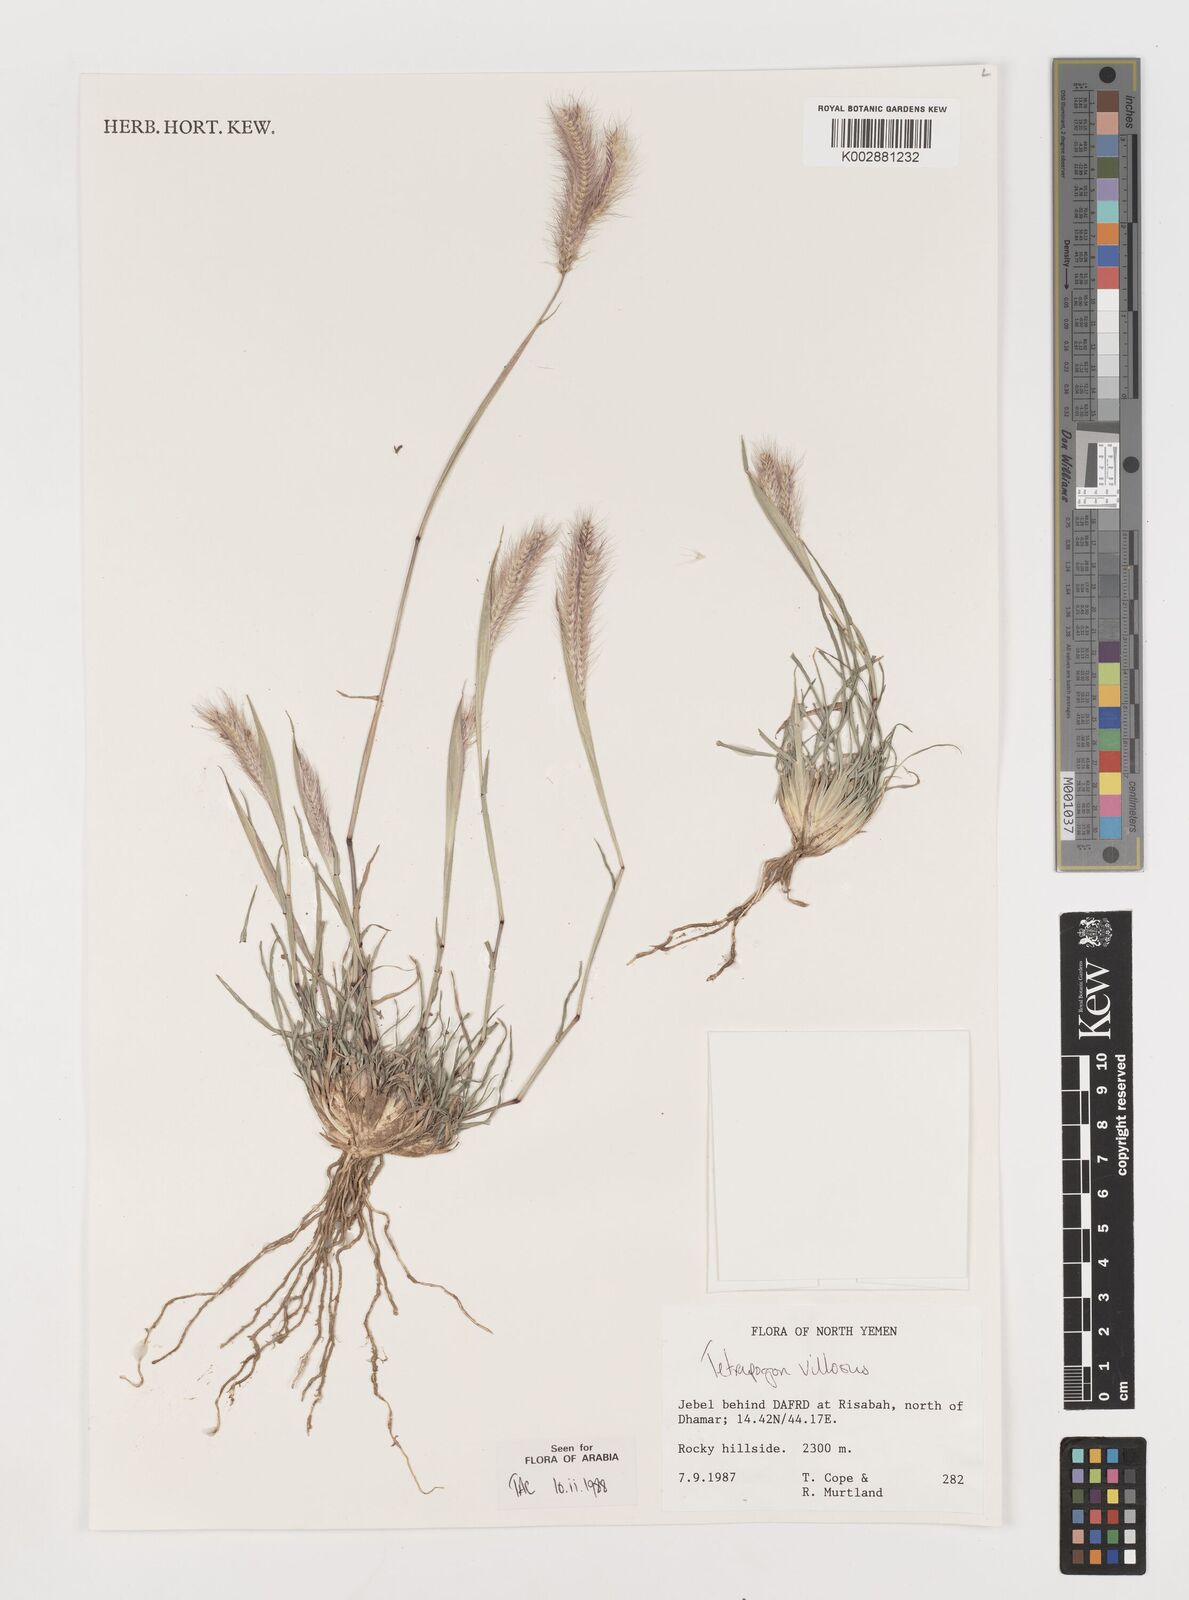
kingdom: Plantae
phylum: Tracheophyta
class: Liliopsida
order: Poales
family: Poaceae
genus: Tetrapogon
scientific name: Tetrapogon villosus
